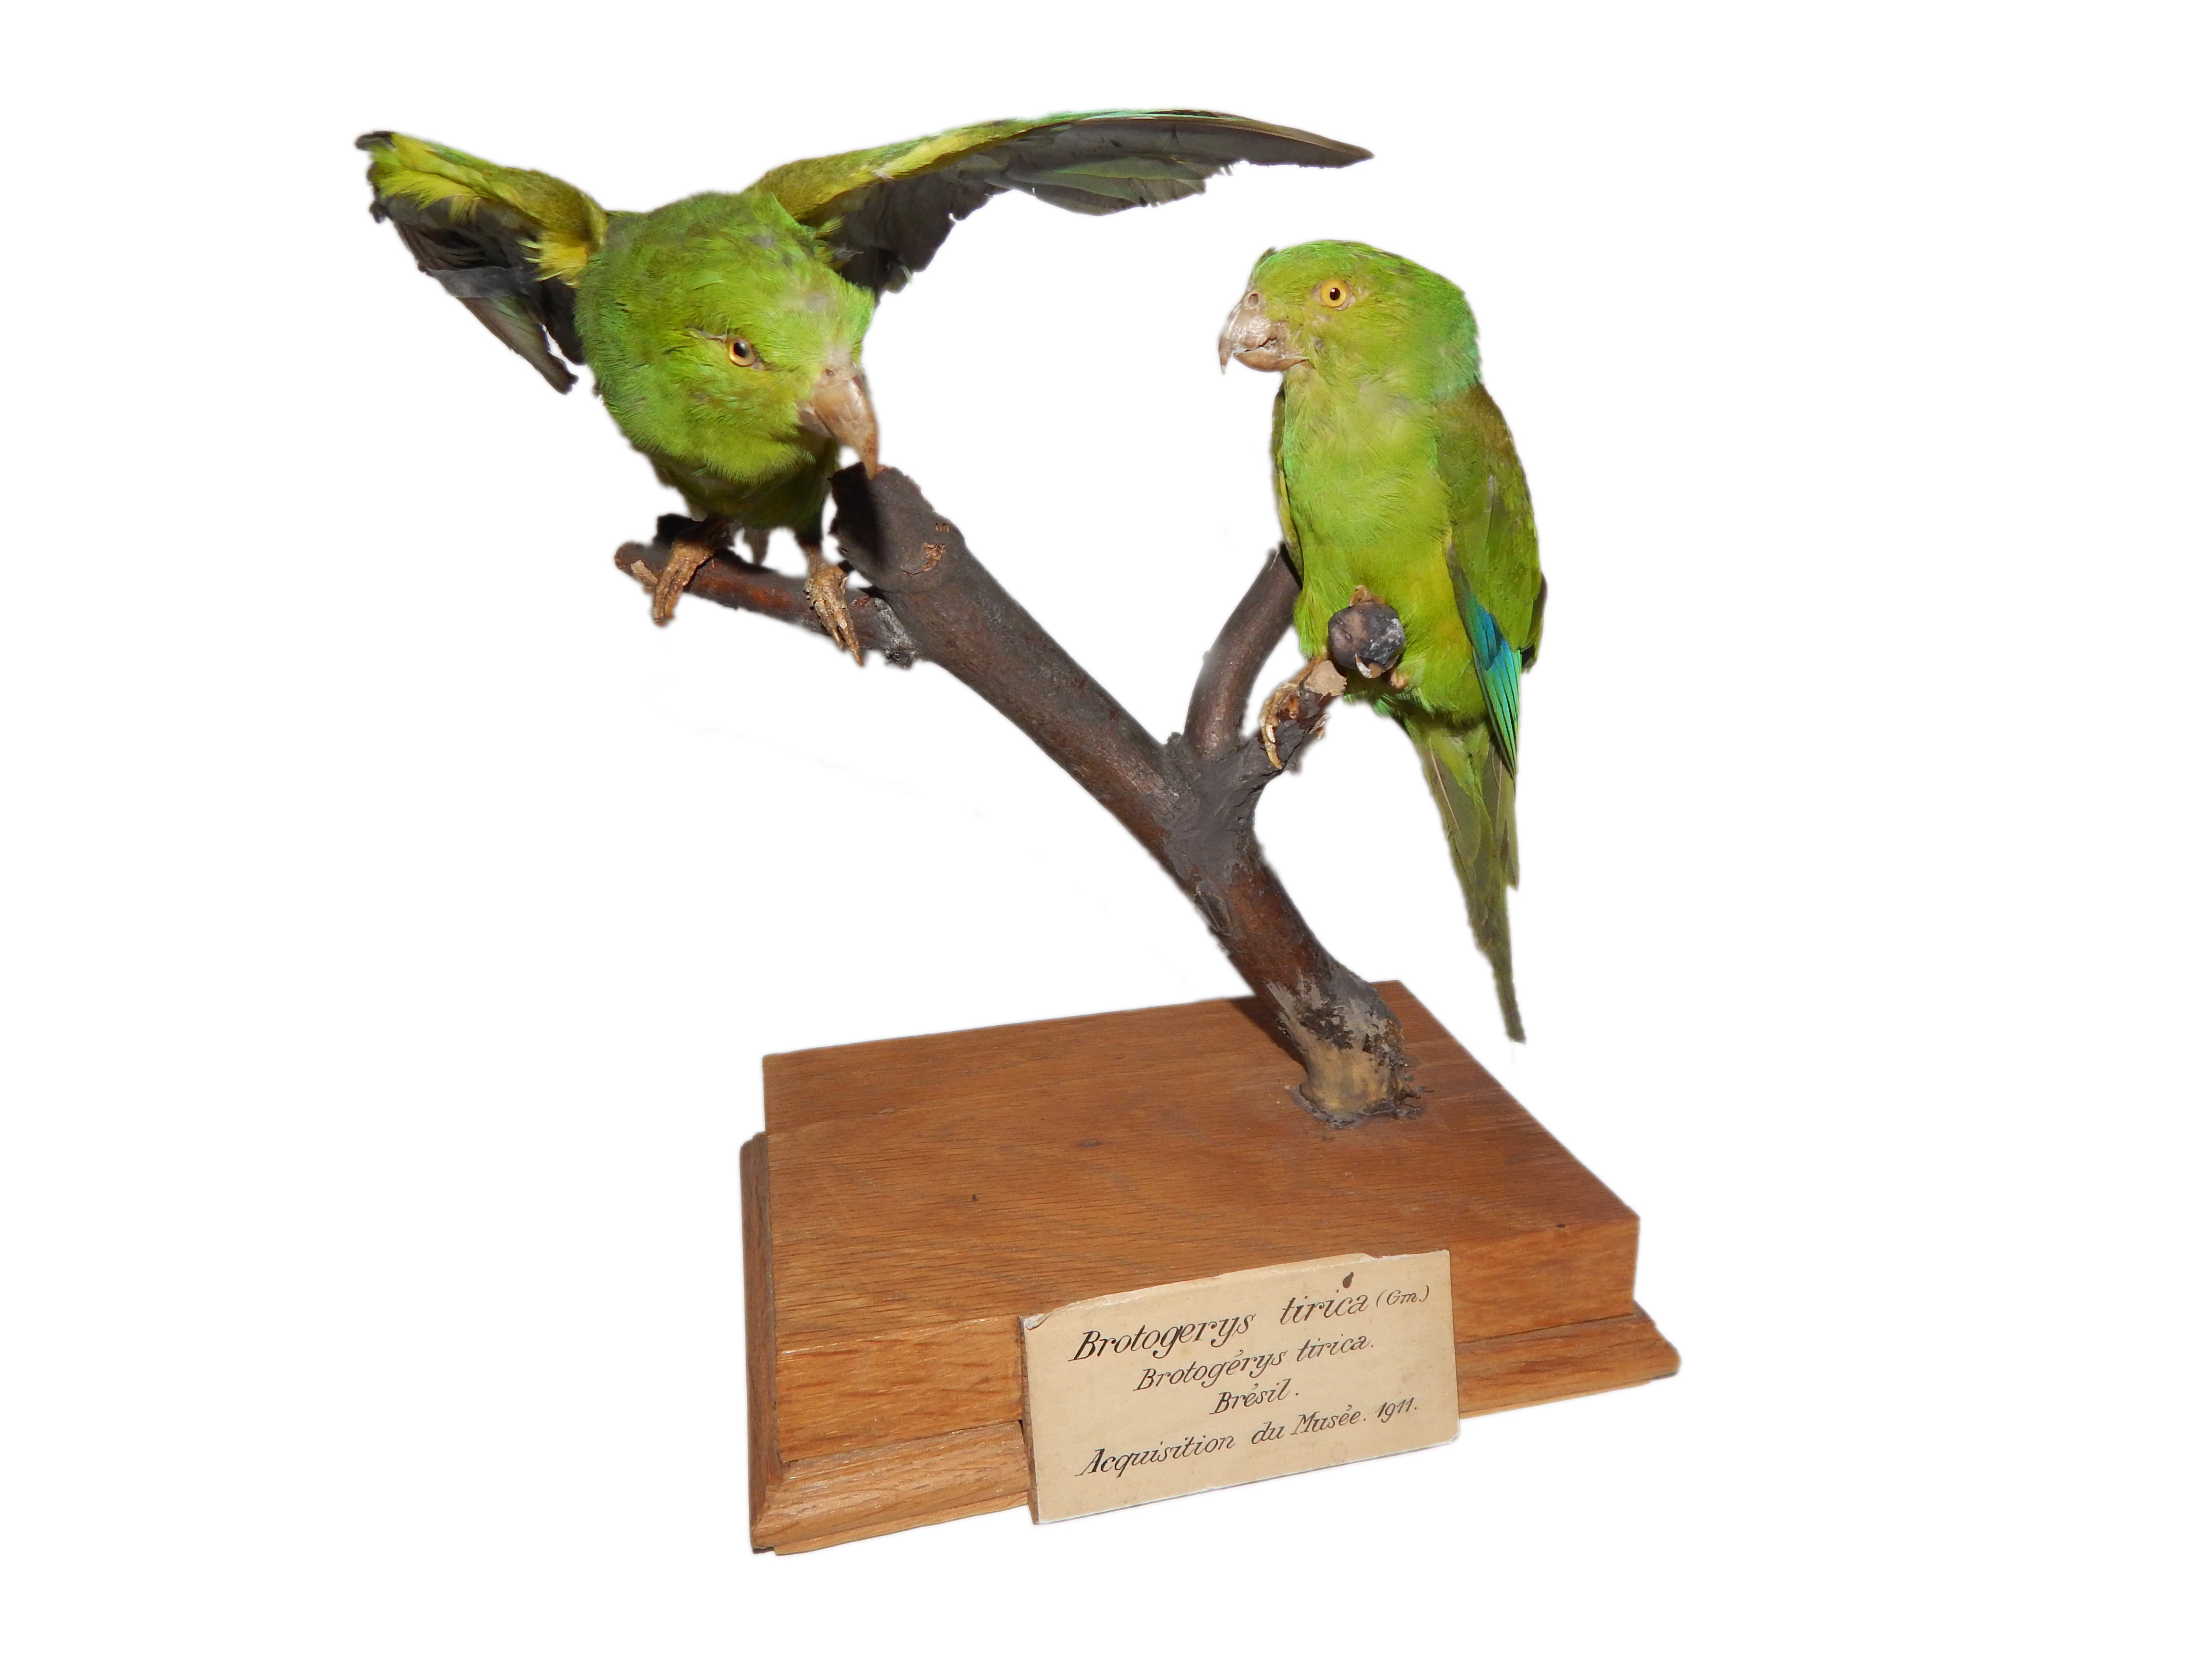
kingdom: Animalia
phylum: Chordata
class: Aves
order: Psittaciformes
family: Psittacidae
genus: Brotogeris
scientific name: Brotogeris tirica
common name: Plain parakeet
